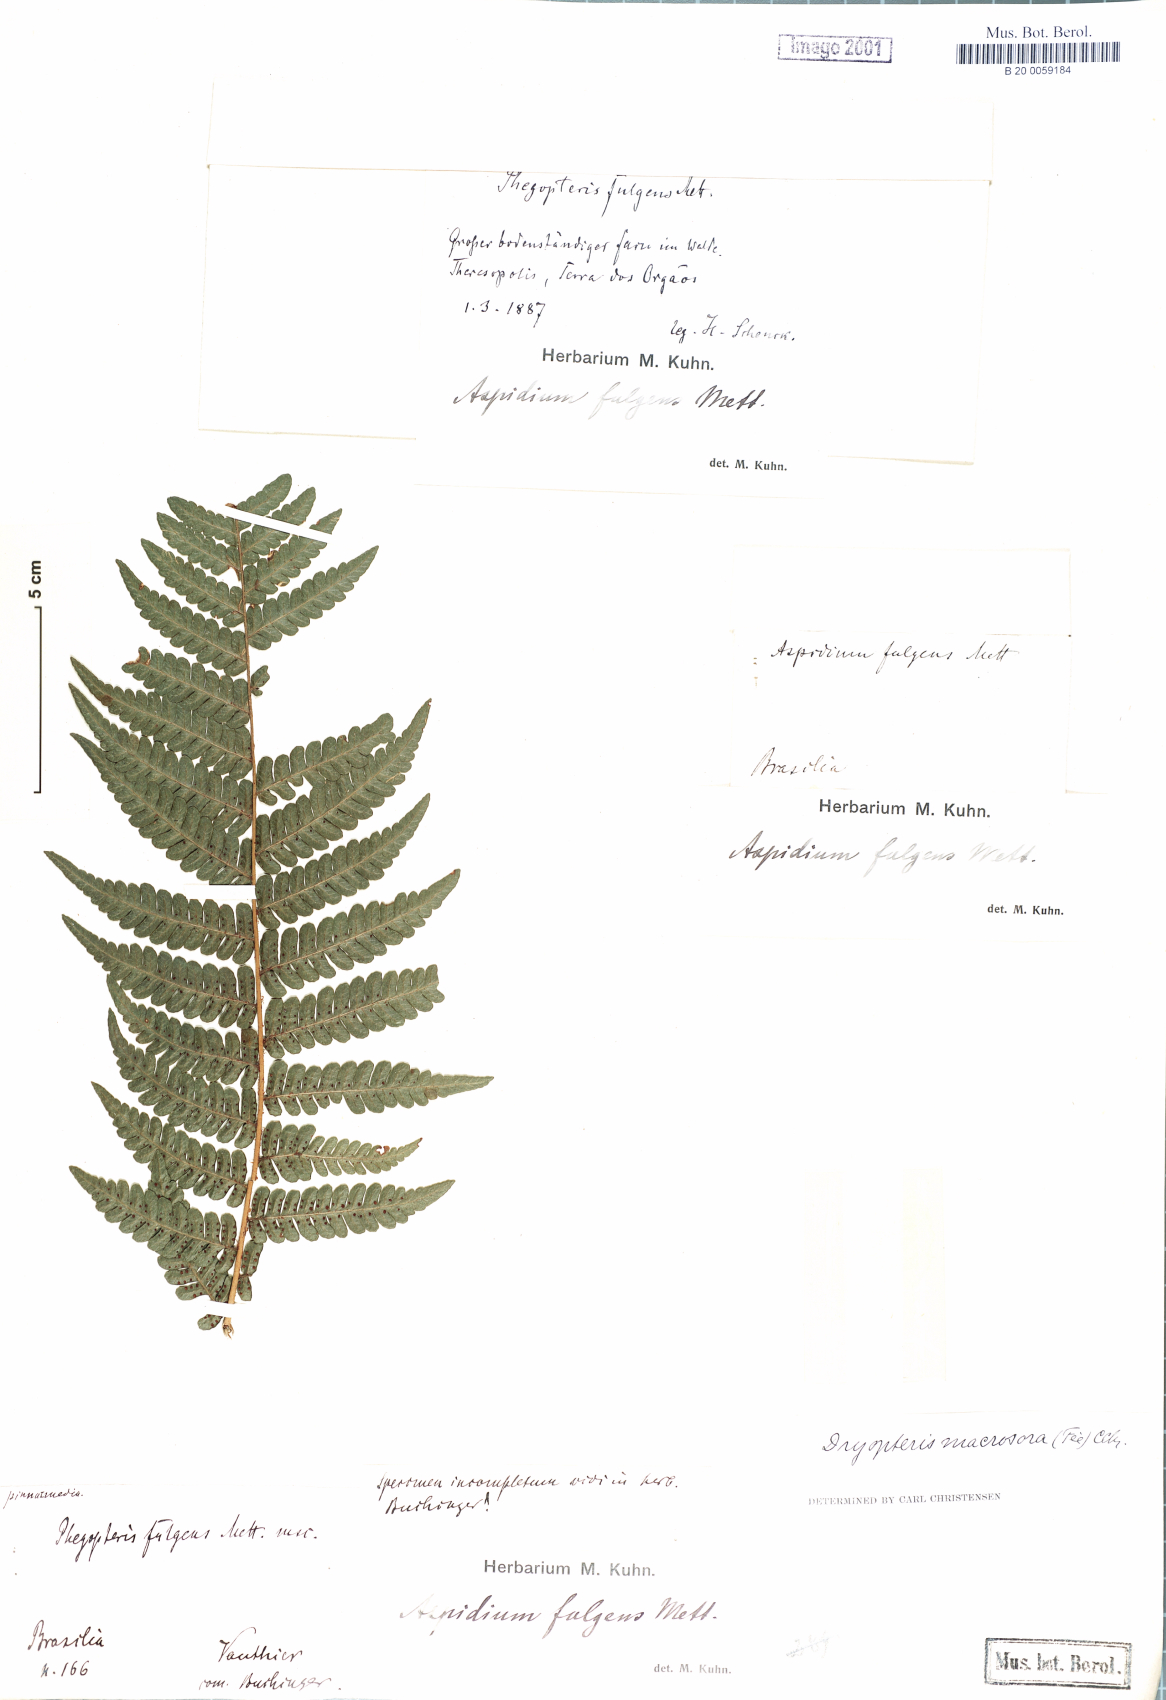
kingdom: Plantae
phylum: Tracheophyta
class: Polypodiopsida
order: Polypodiales
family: Dryopteridaceae
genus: Megalastrum
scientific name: Megalastrum inaequale
